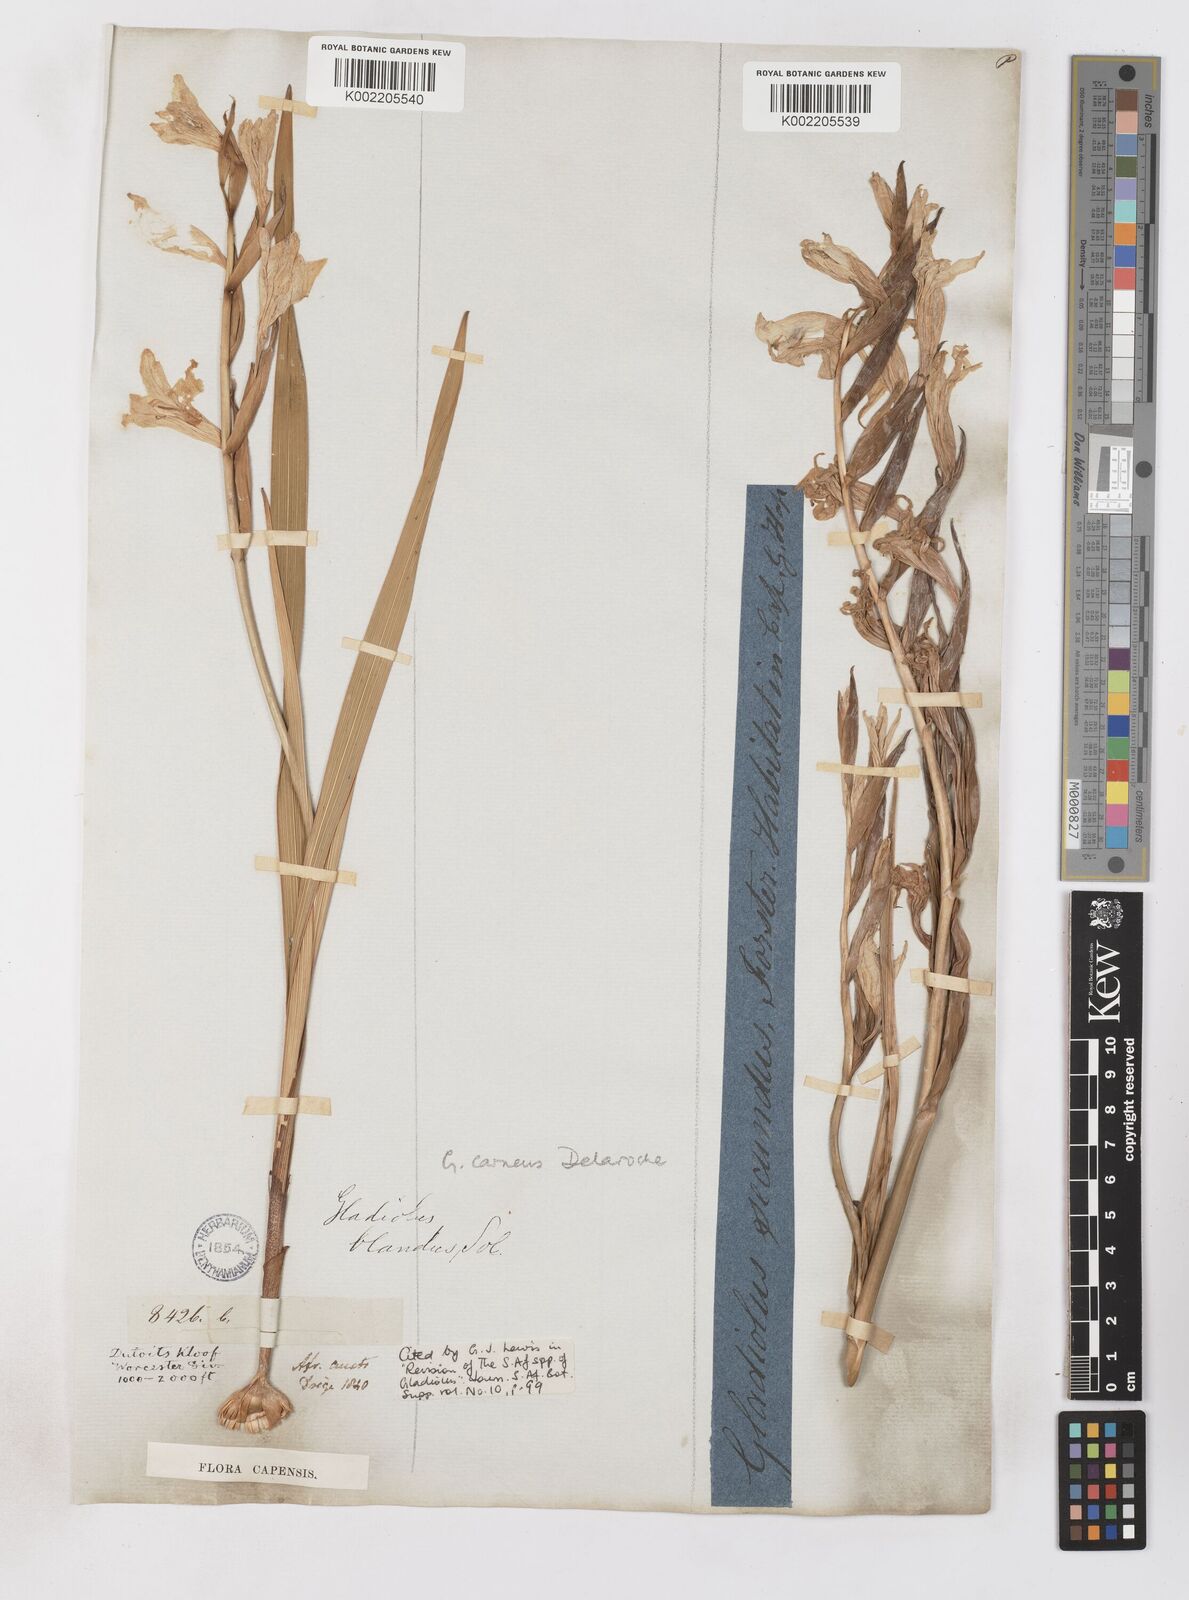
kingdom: Plantae
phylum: Tracheophyta
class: Liliopsida
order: Asparagales
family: Iridaceae
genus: Gladiolus
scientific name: Gladiolus carneus
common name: Painted-lady
